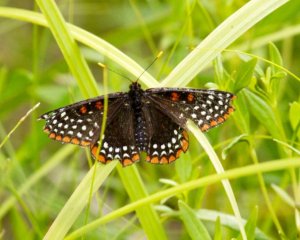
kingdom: Animalia
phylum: Arthropoda
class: Insecta
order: Lepidoptera
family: Nymphalidae
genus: Euphydryas
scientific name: Euphydryas phaeton
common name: Baltimore Checkerspot
